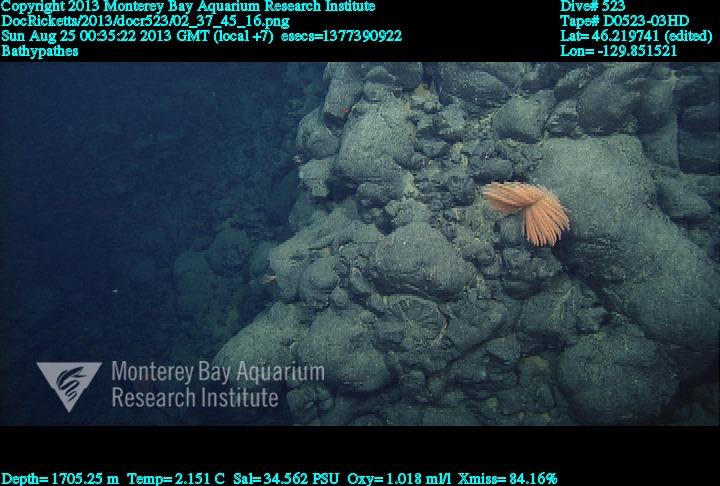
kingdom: Animalia
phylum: Cnidaria
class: Anthozoa
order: Antipatharia
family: Schizopathidae
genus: Bathypathes
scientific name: Bathypathes
